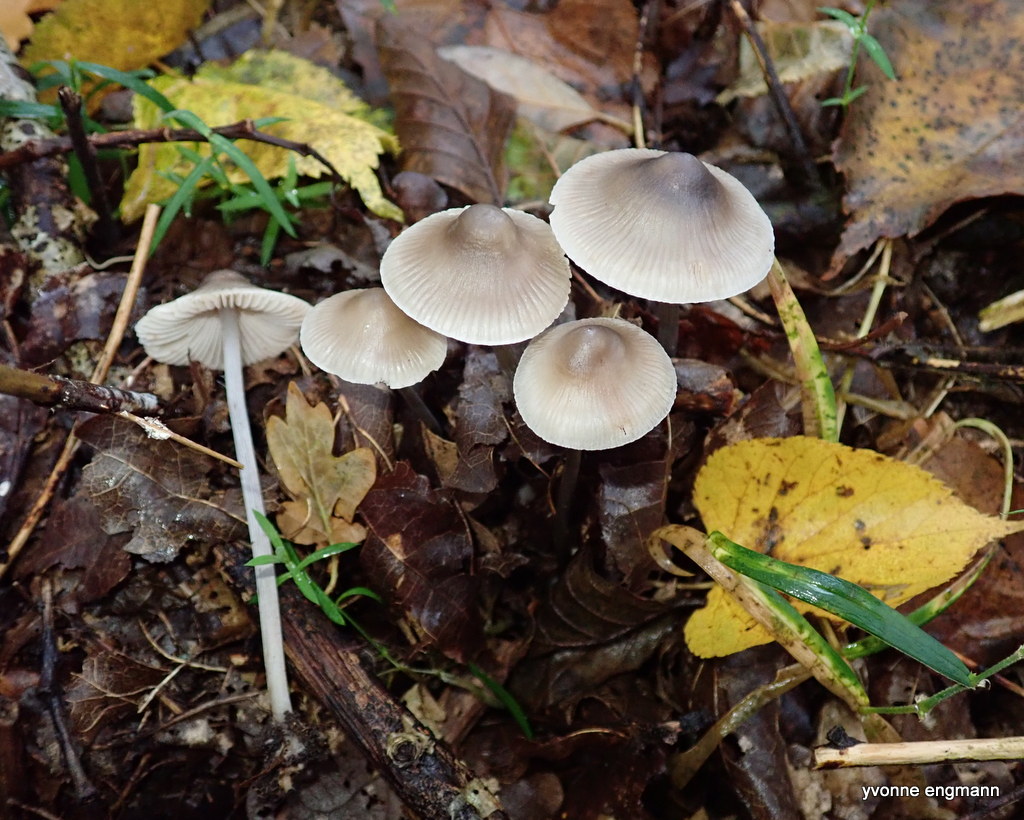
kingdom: Fungi
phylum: Basidiomycota
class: Agaricomycetes
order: Agaricales
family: Mycenaceae
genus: Mycena
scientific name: Mycena polygramma
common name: mangestribet huesvamp
